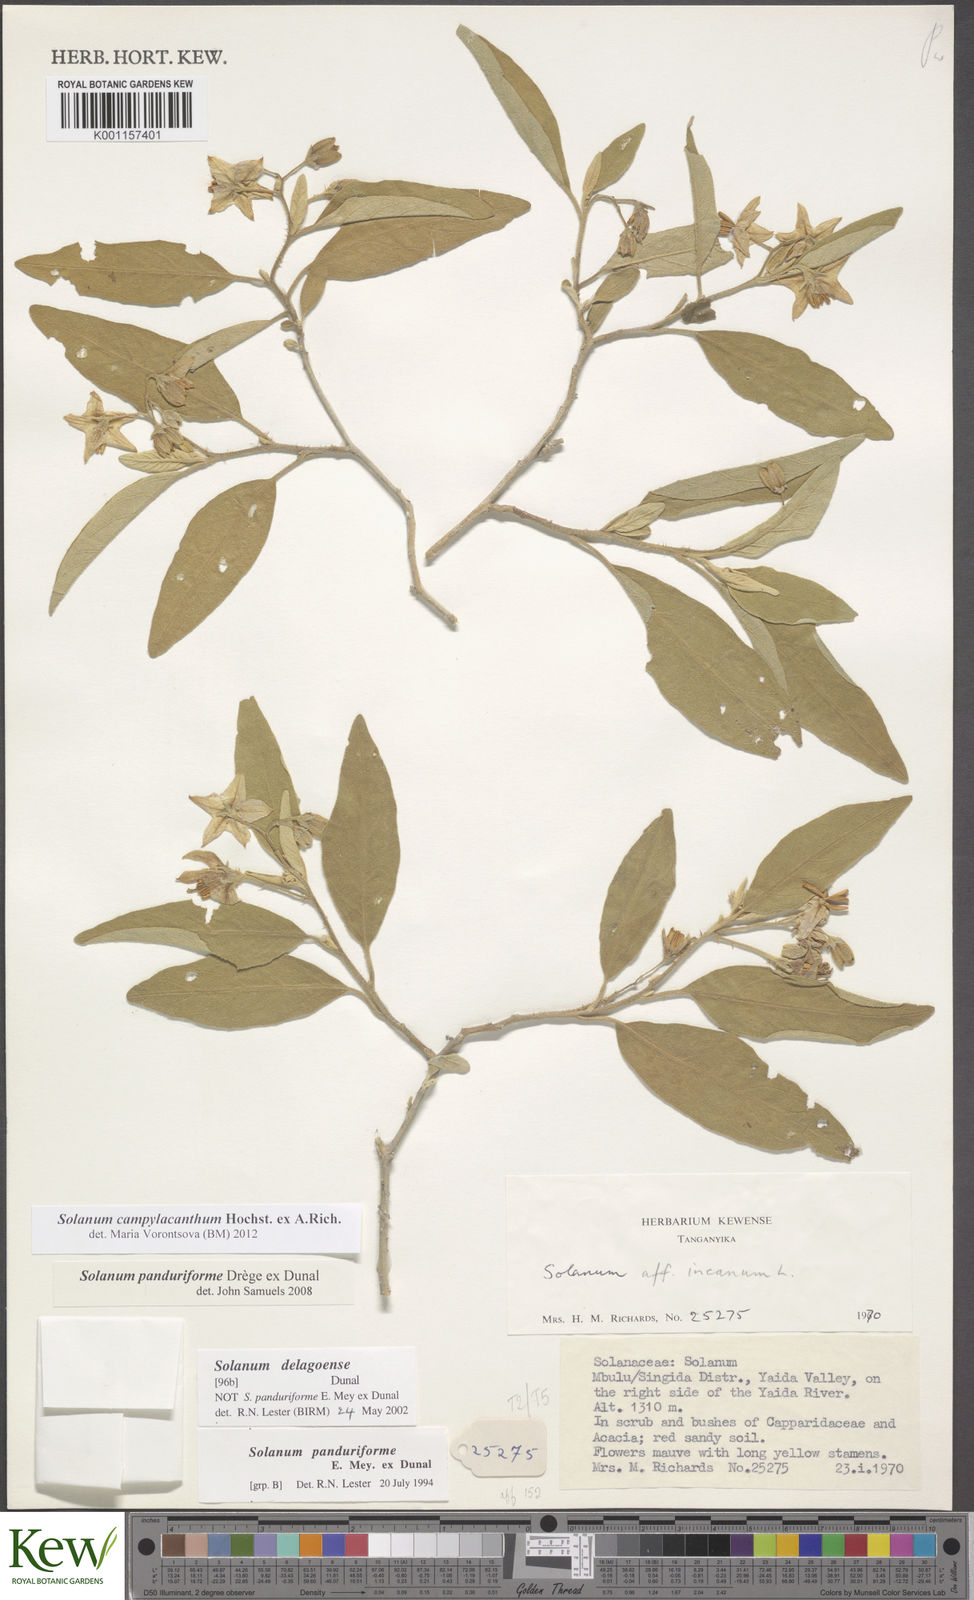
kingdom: Plantae
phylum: Tracheophyta
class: Magnoliopsida
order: Solanales
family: Solanaceae
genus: Solanum
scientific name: Solanum campylacanthum
